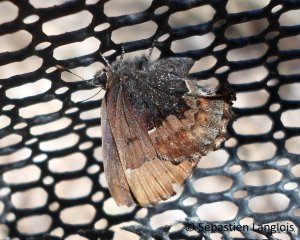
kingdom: Animalia
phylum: Arthropoda
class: Insecta
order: Lepidoptera
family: Lycaenidae
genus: Incisalia
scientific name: Incisalia henrici
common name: Henry's Elfin
